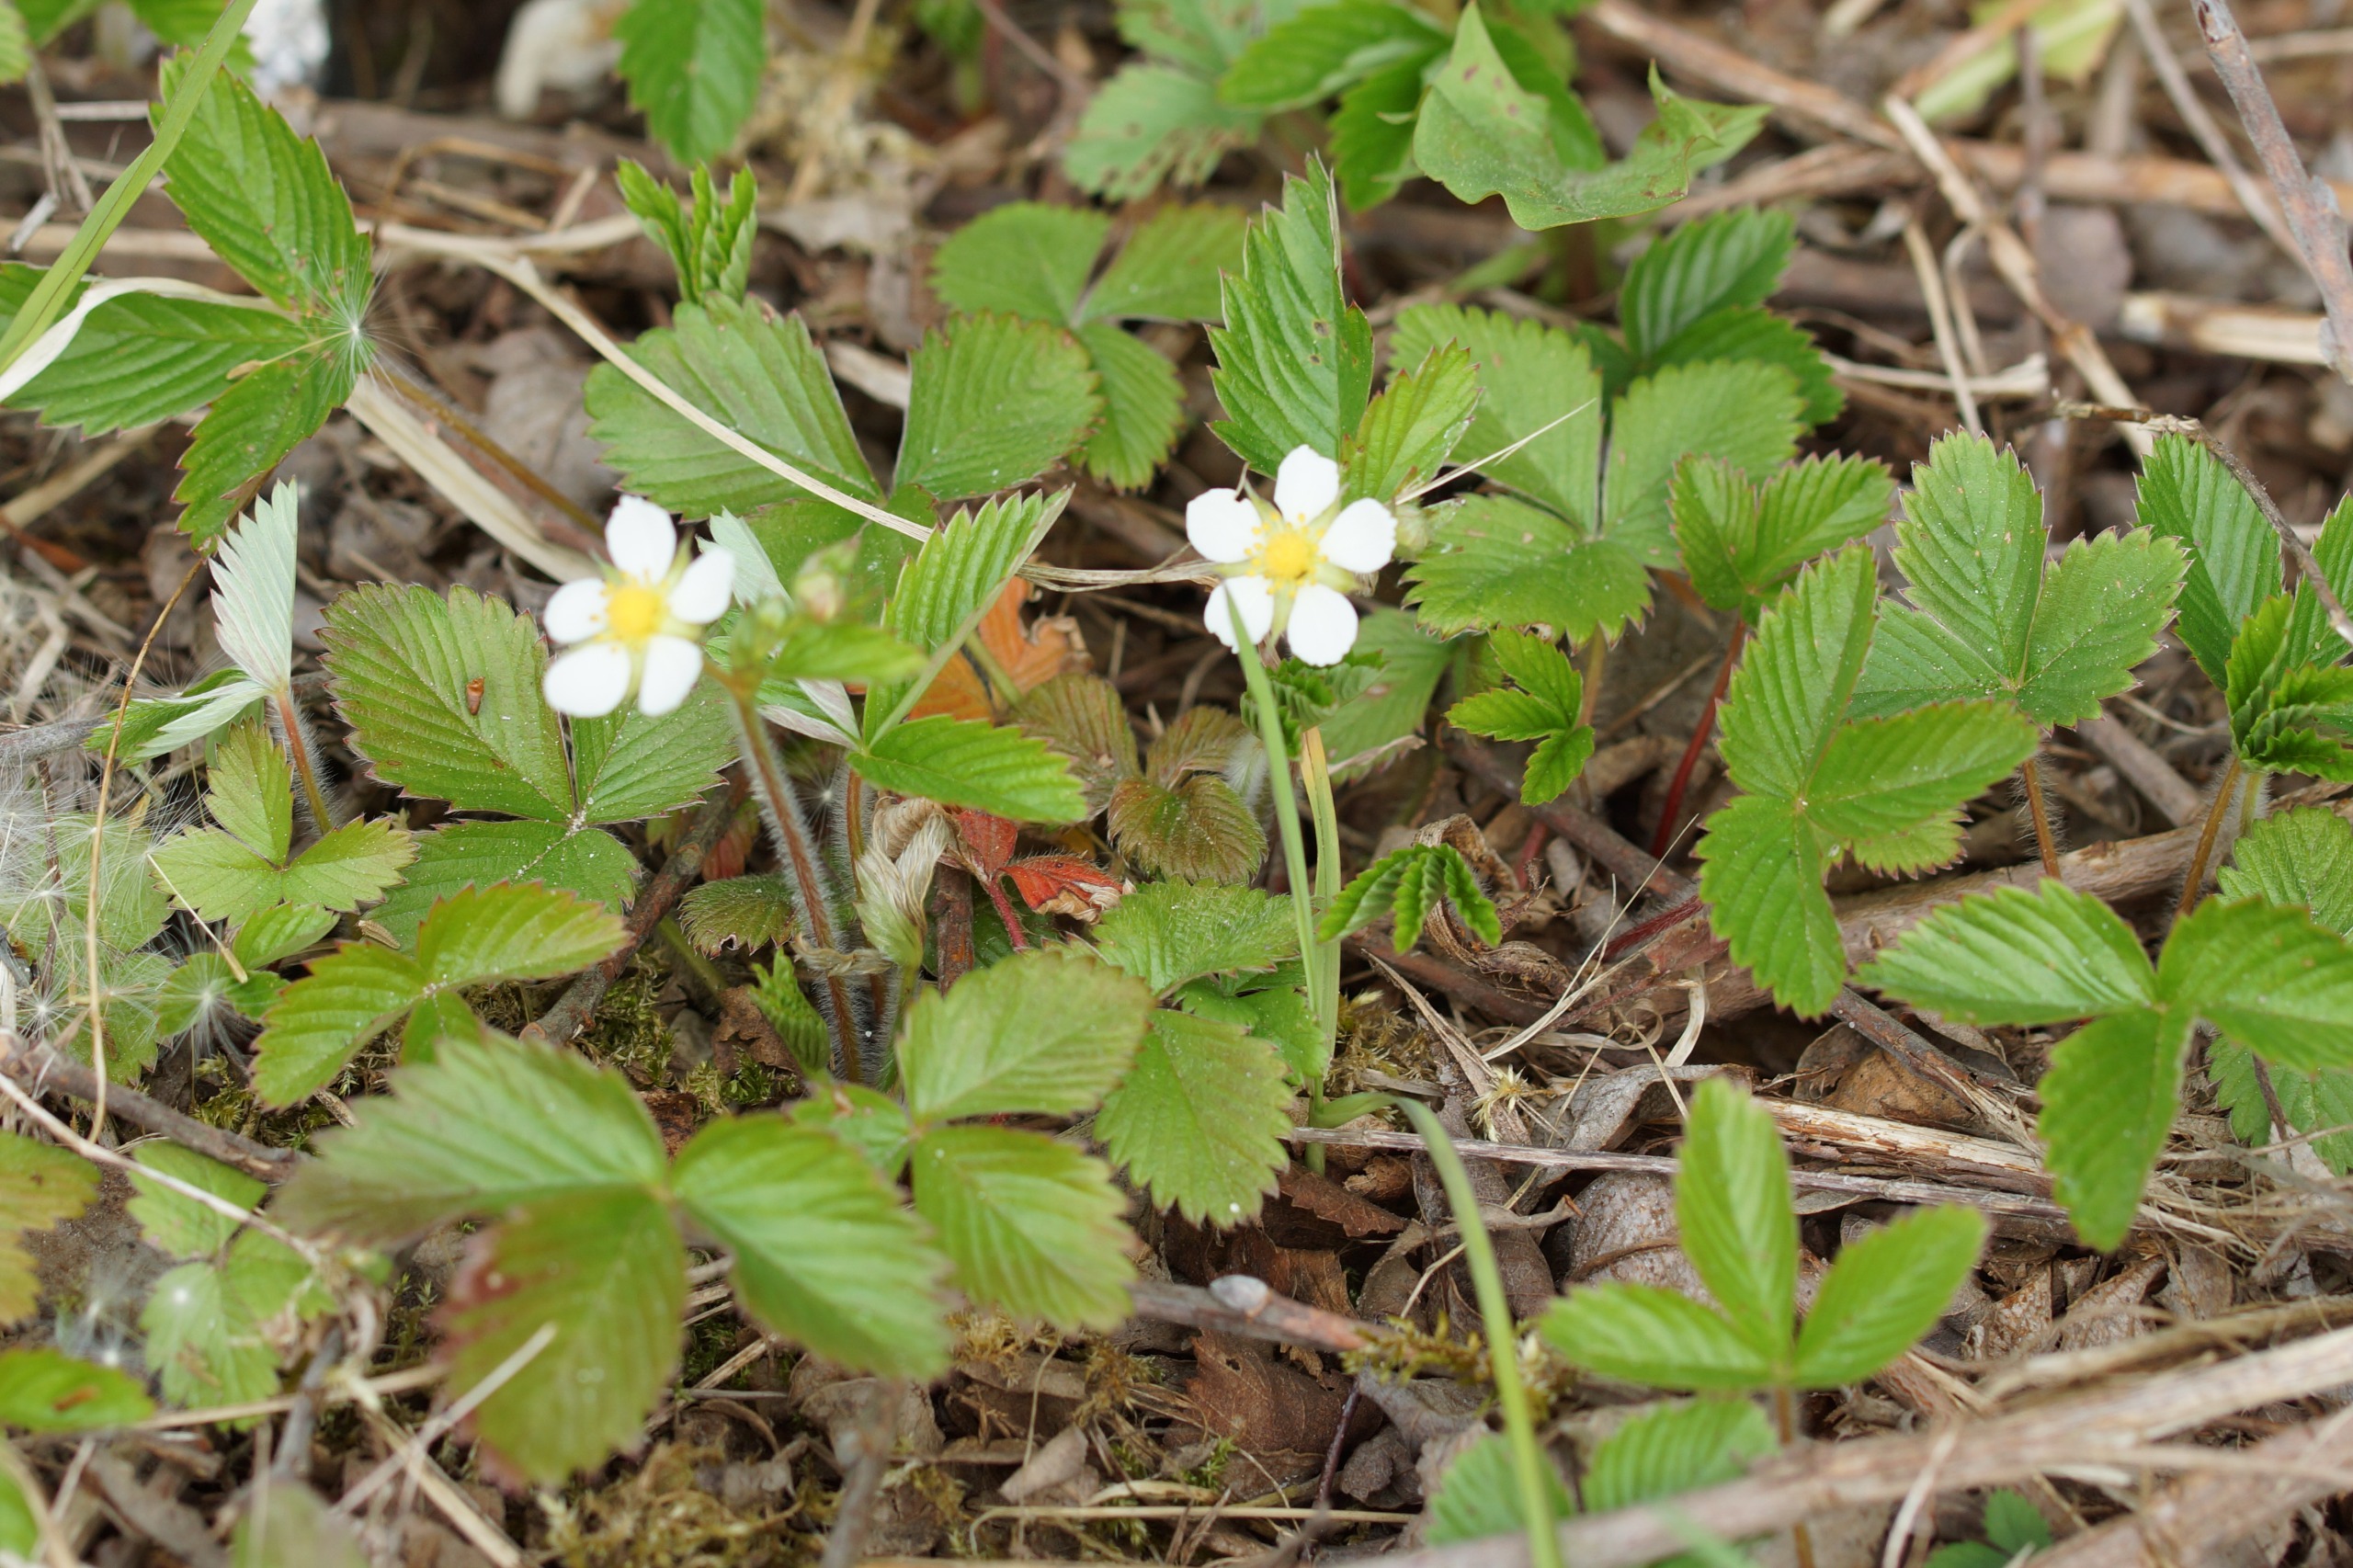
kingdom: Plantae
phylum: Tracheophyta
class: Magnoliopsida
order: Rosales
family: Rosaceae
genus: Fragaria
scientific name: Fragaria vesca
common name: Skov-jordbær
